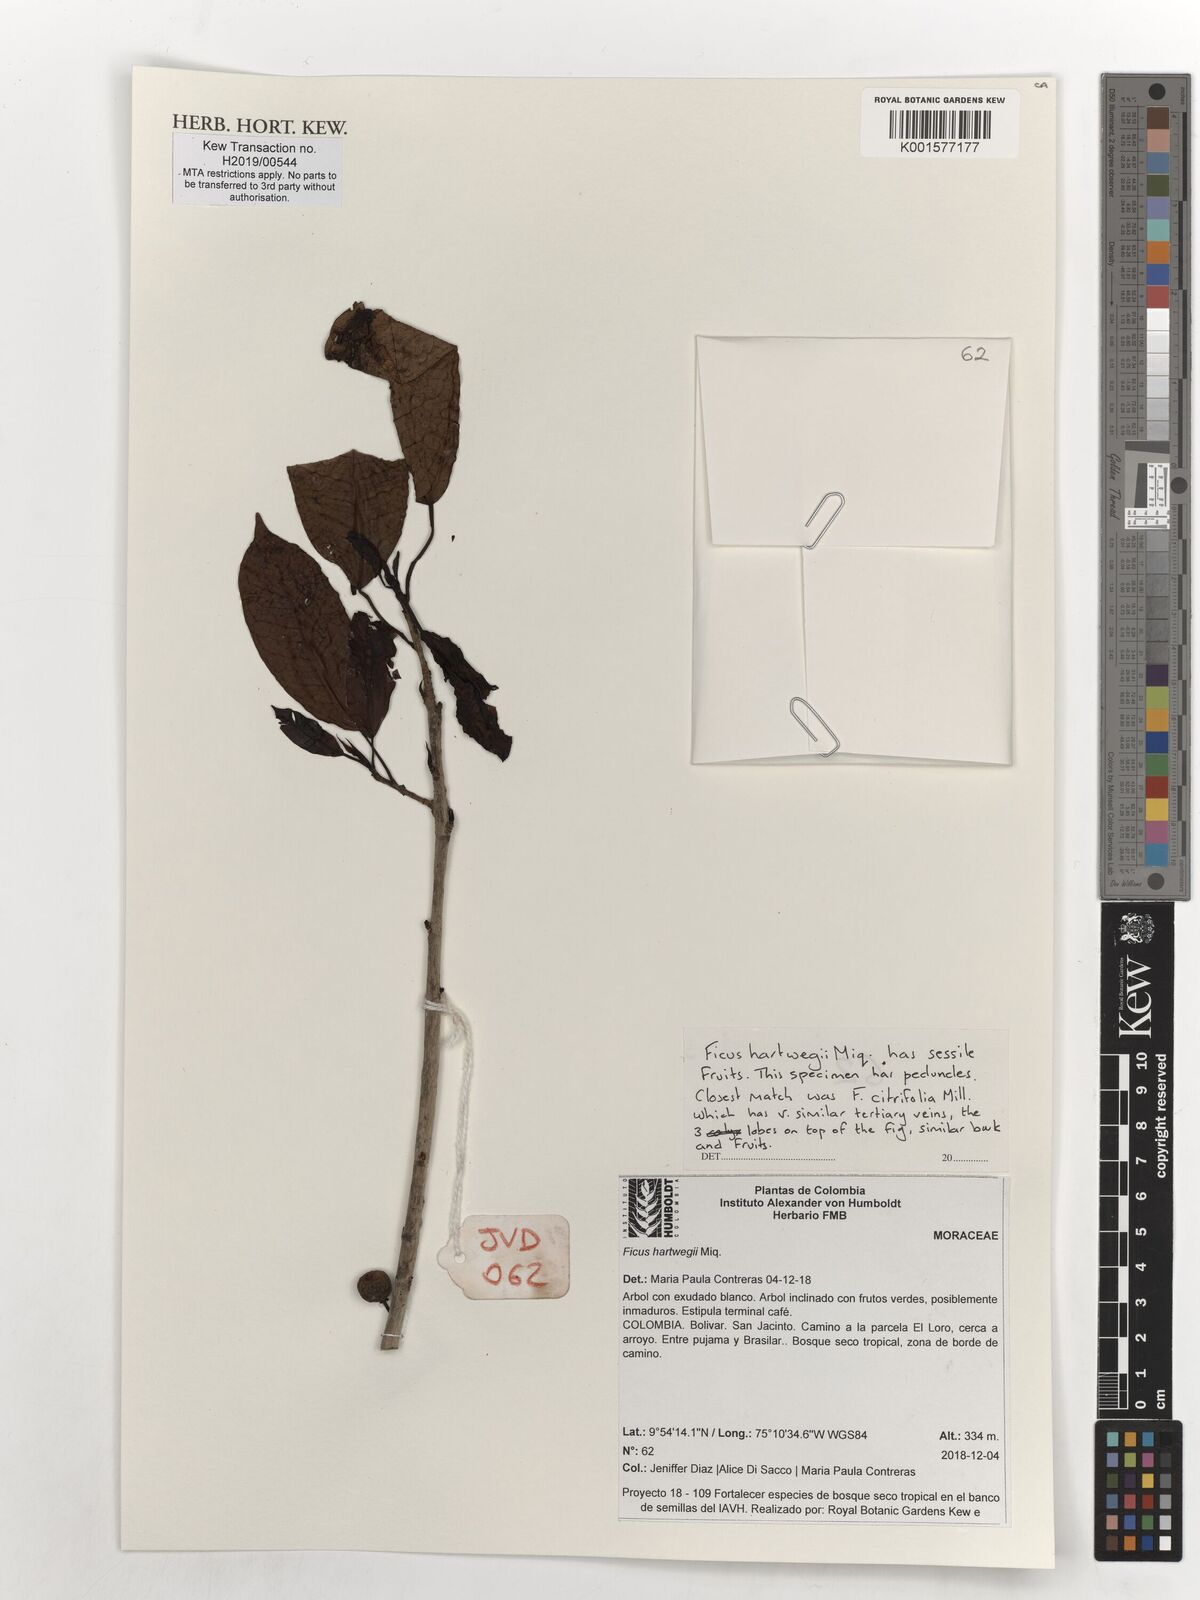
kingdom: Plantae
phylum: Tracheophyta
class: Magnoliopsida
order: Rosales
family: Moraceae
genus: Ficus
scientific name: Ficus hartwegii
